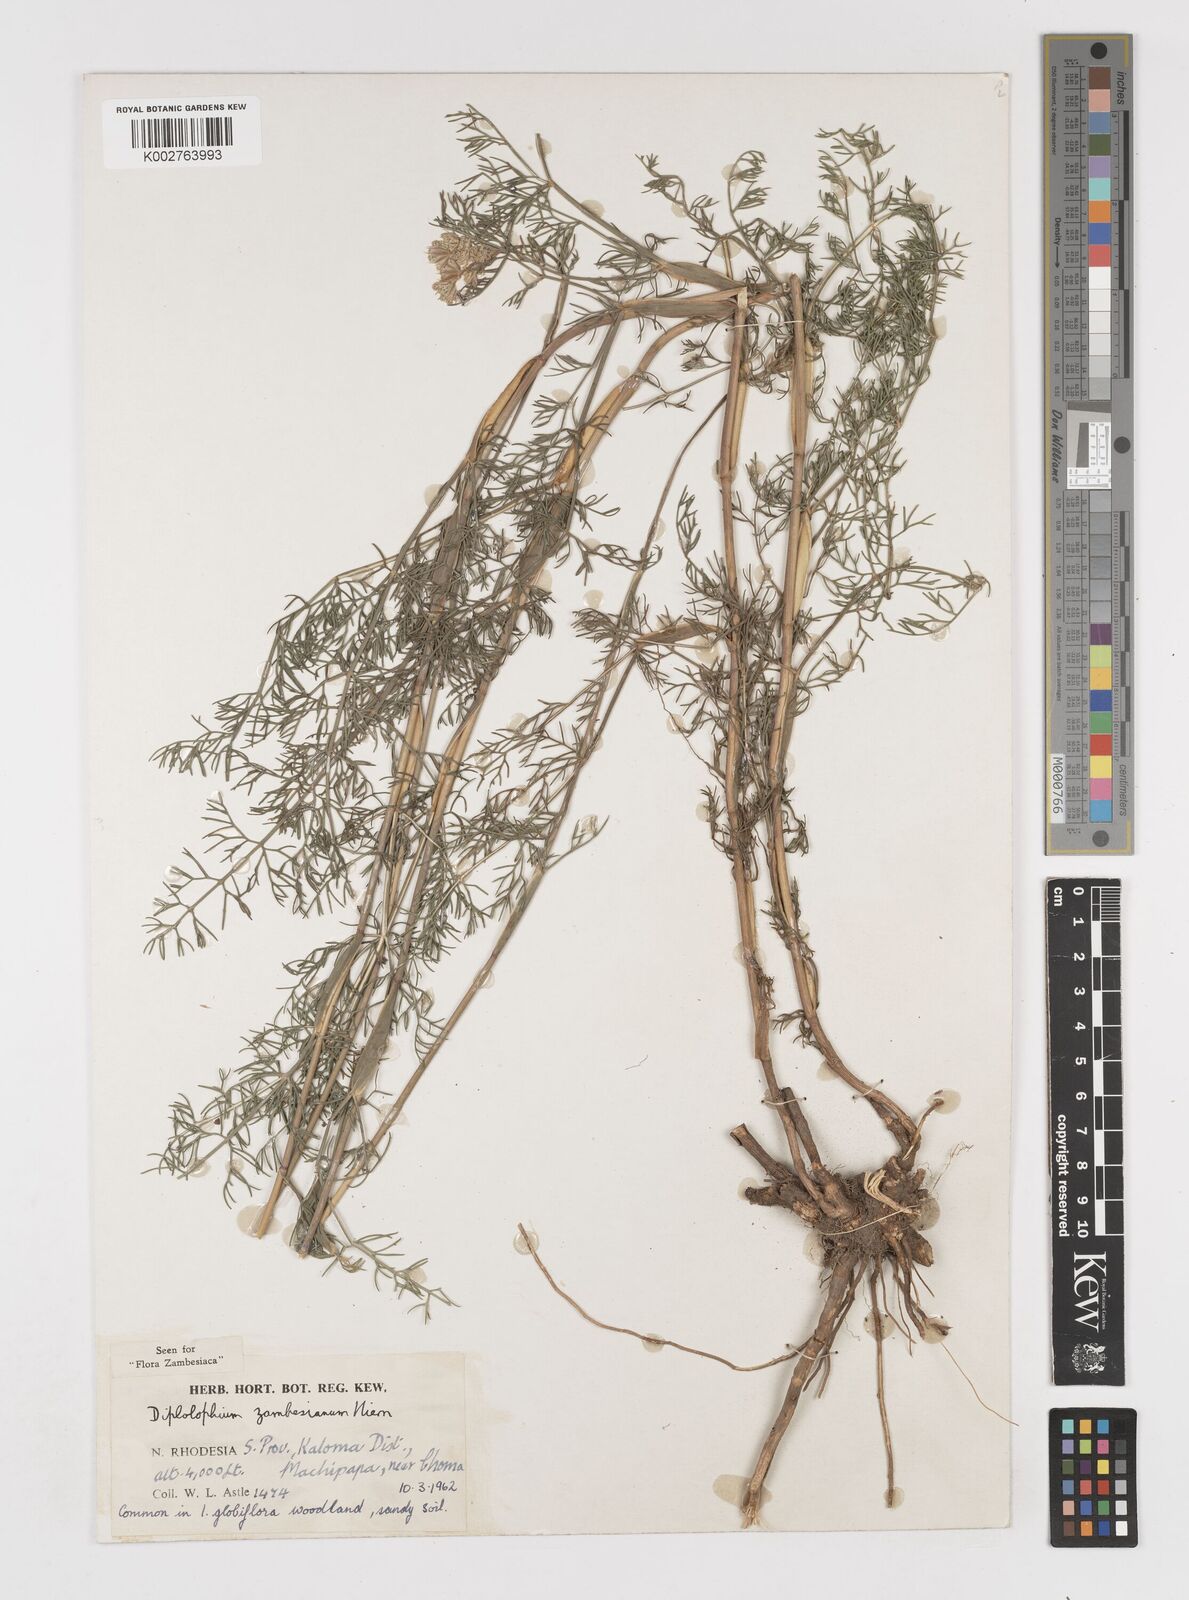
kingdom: Plantae
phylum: Tracheophyta
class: Magnoliopsida
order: Apiales
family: Apiaceae
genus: Diplolophium
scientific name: Diplolophium zambesianum
